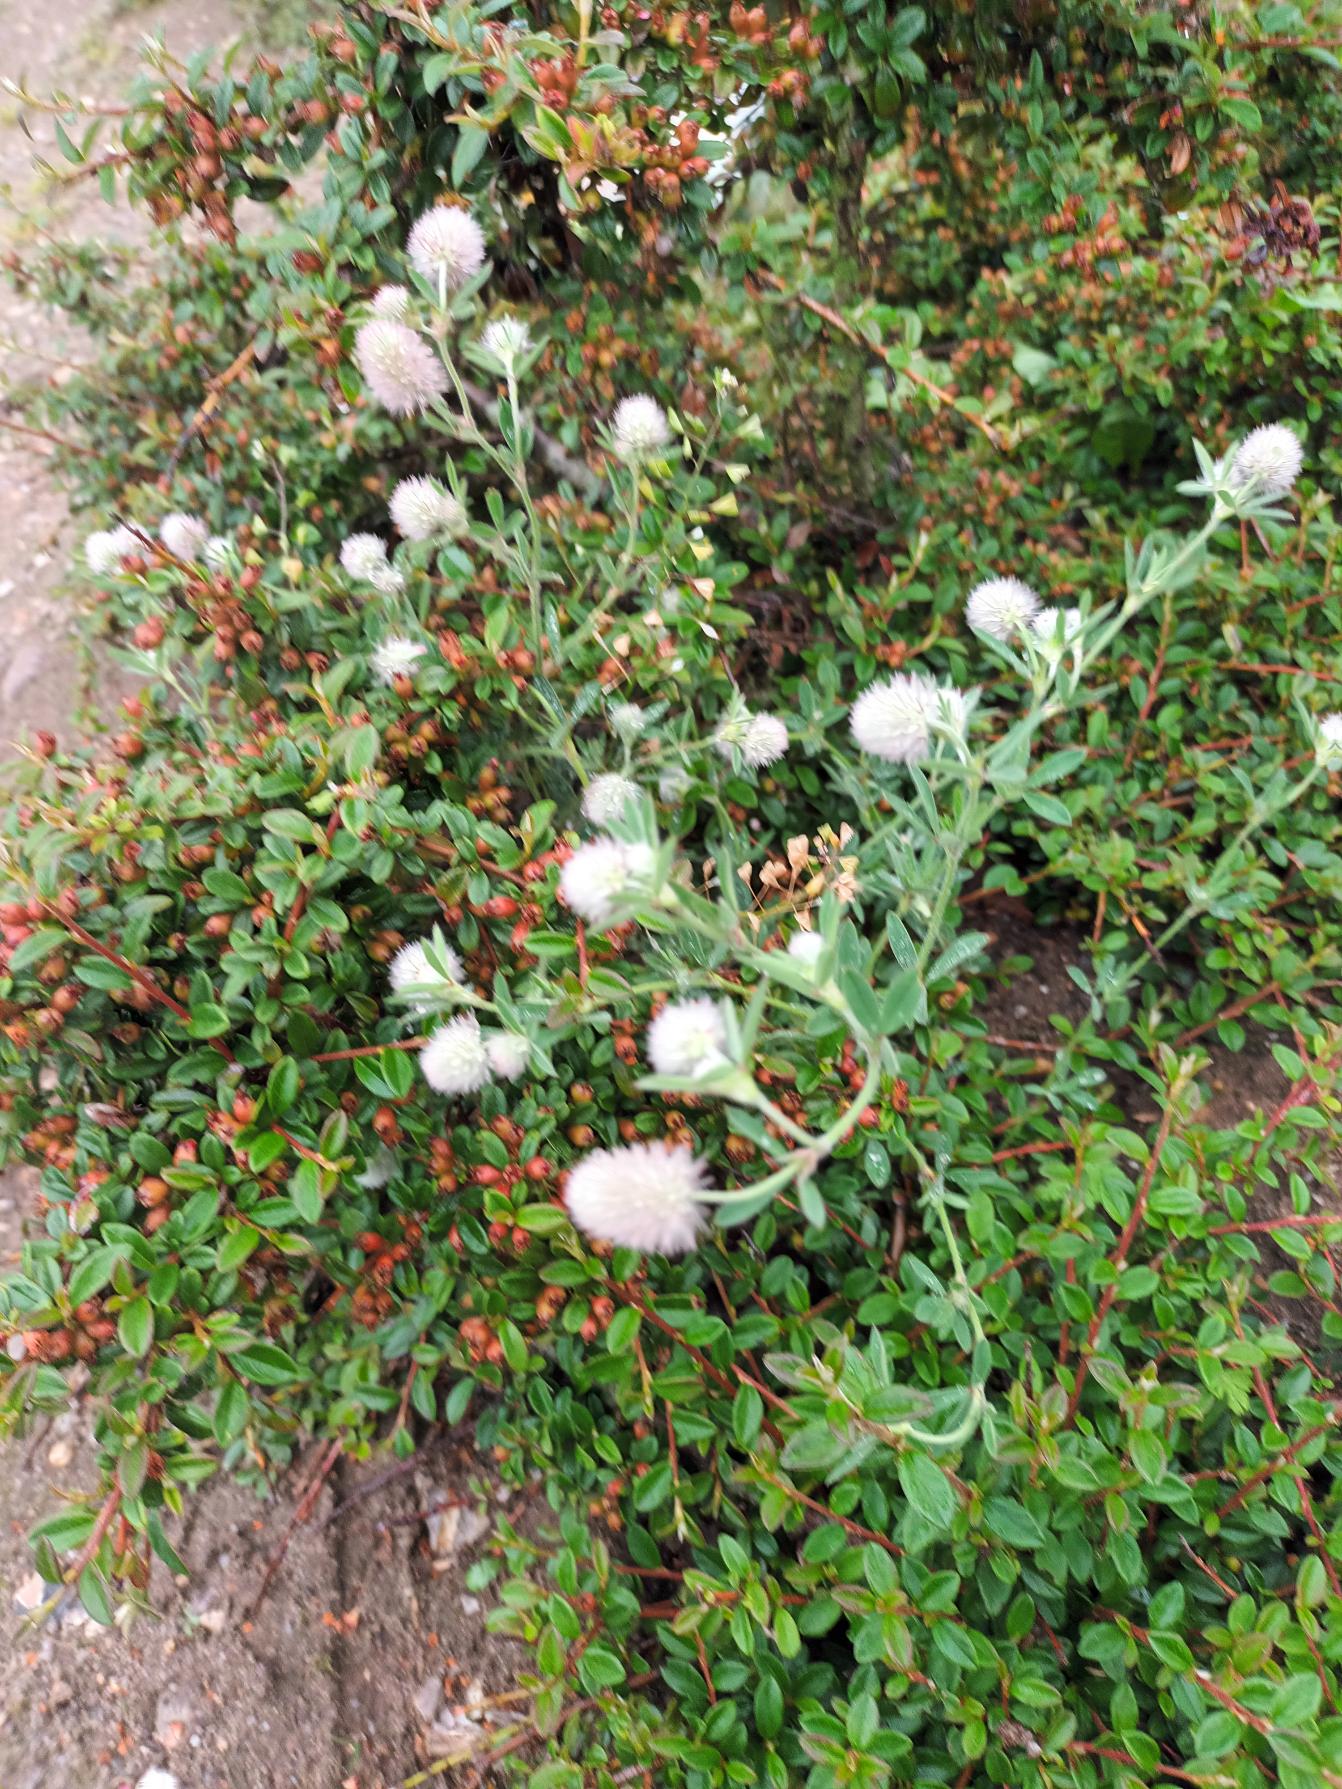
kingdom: Plantae
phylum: Tracheophyta
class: Magnoliopsida
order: Fabales
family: Fabaceae
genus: Trifolium
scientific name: Trifolium arvense
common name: Hare-kløver
